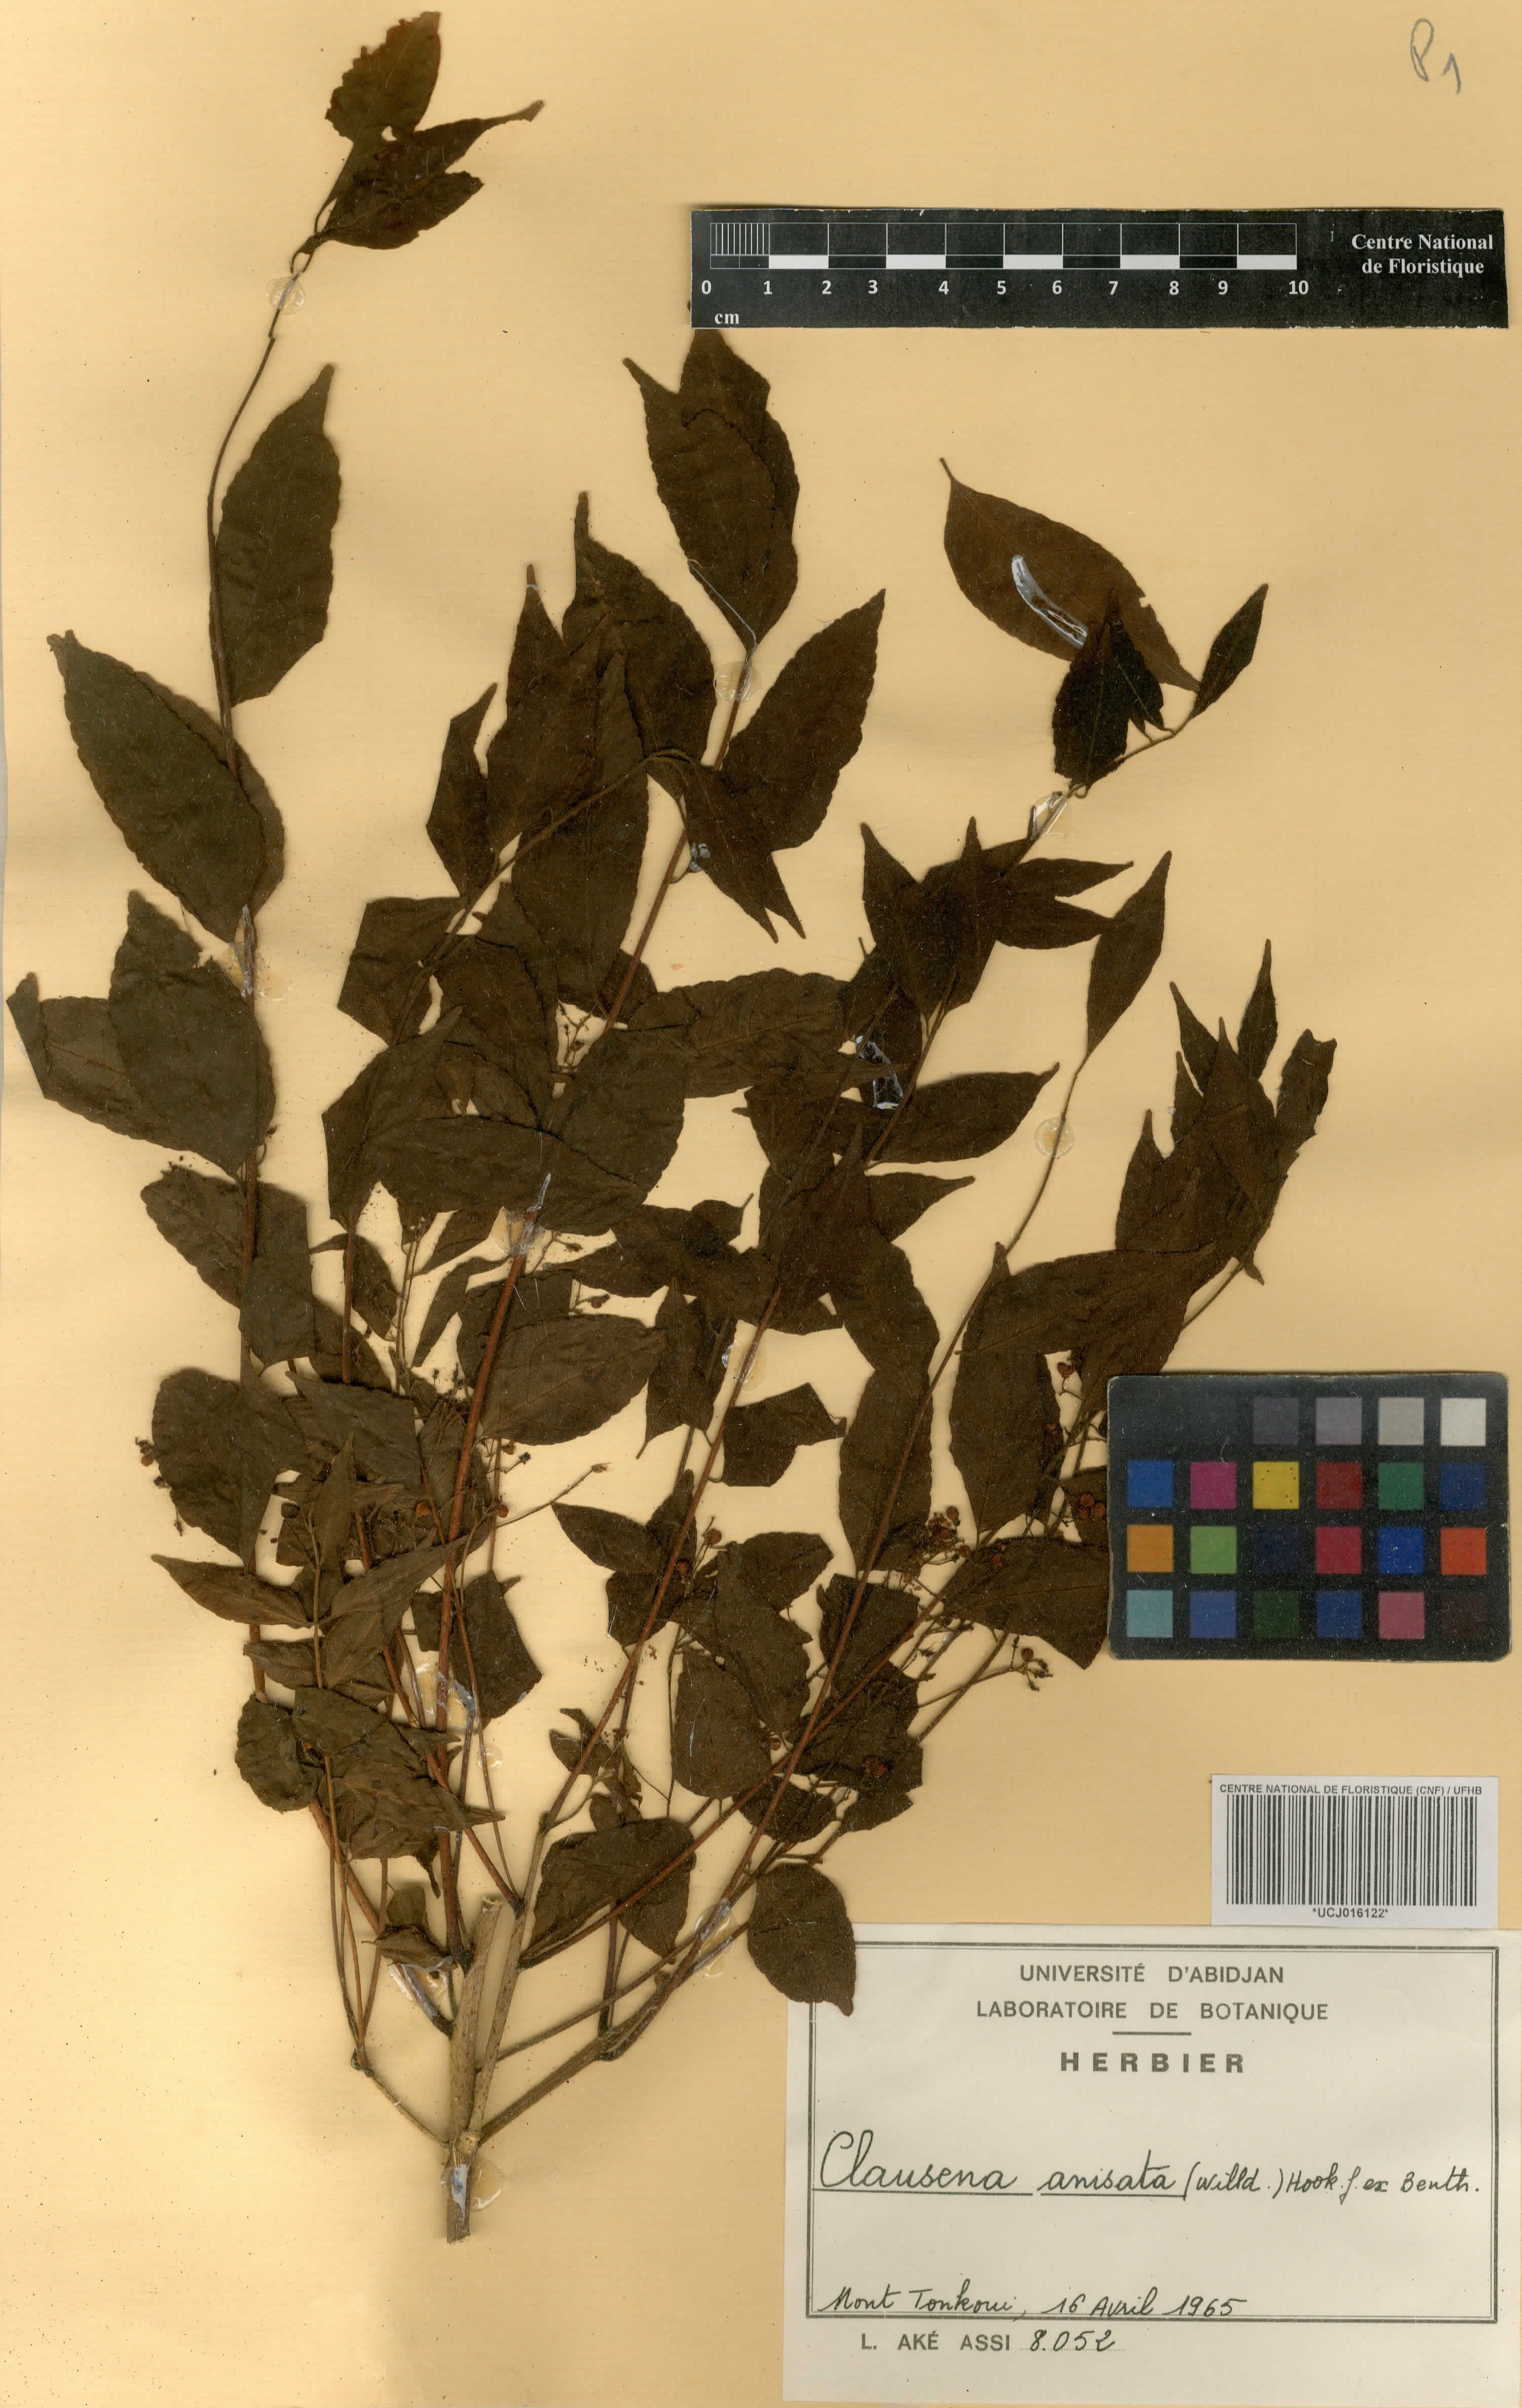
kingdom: Plantae
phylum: Tracheophyta
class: Magnoliopsida
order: Sapindales
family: Rutaceae
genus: Clausena
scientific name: Clausena anisata
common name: Horsewood
